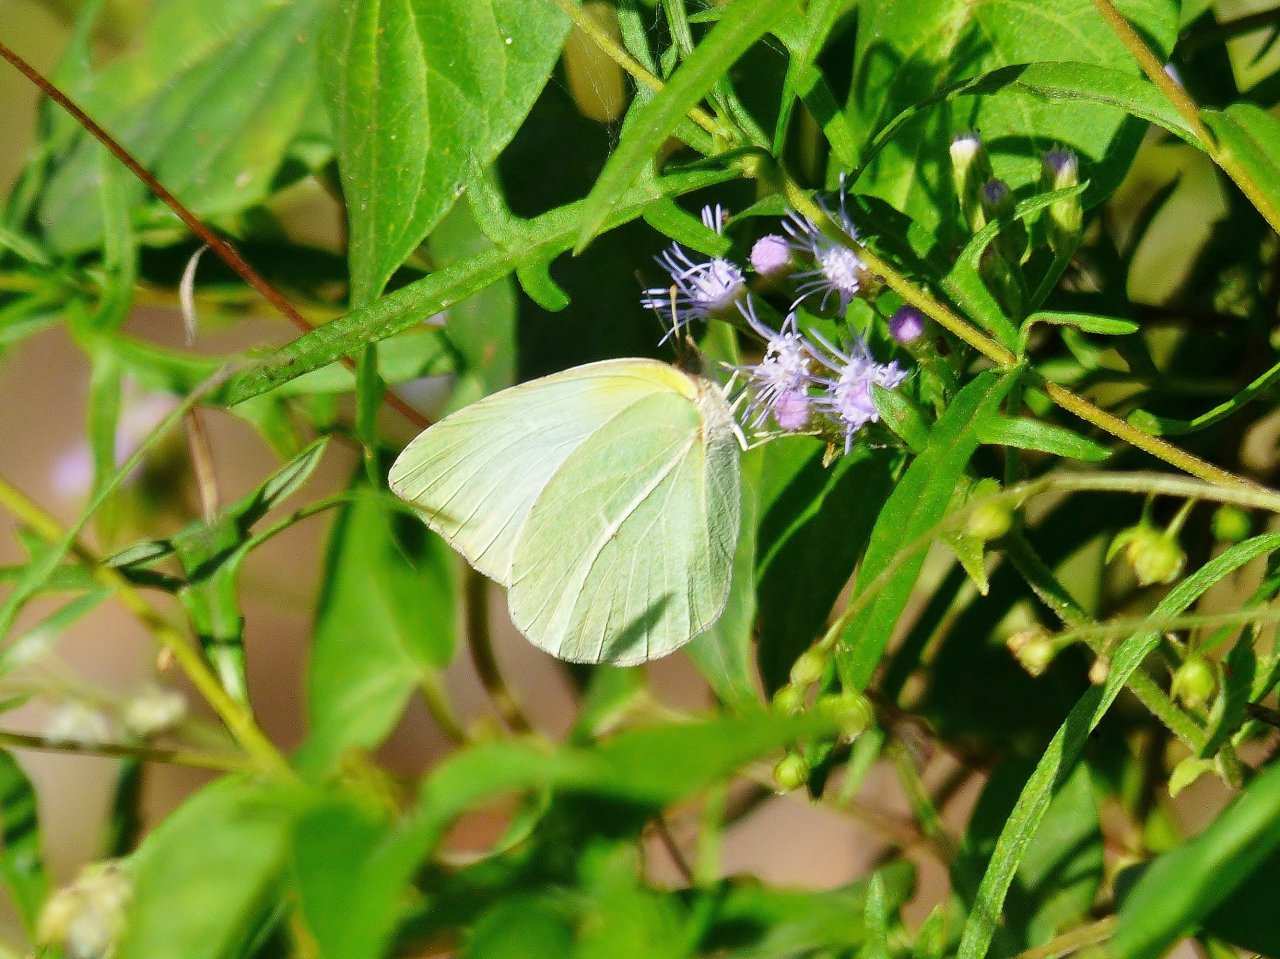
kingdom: Animalia
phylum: Arthropoda
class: Insecta
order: Lepidoptera
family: Pieridae
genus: Kricogonia
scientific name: Kricogonia lyside
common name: Lyside Sulphur
